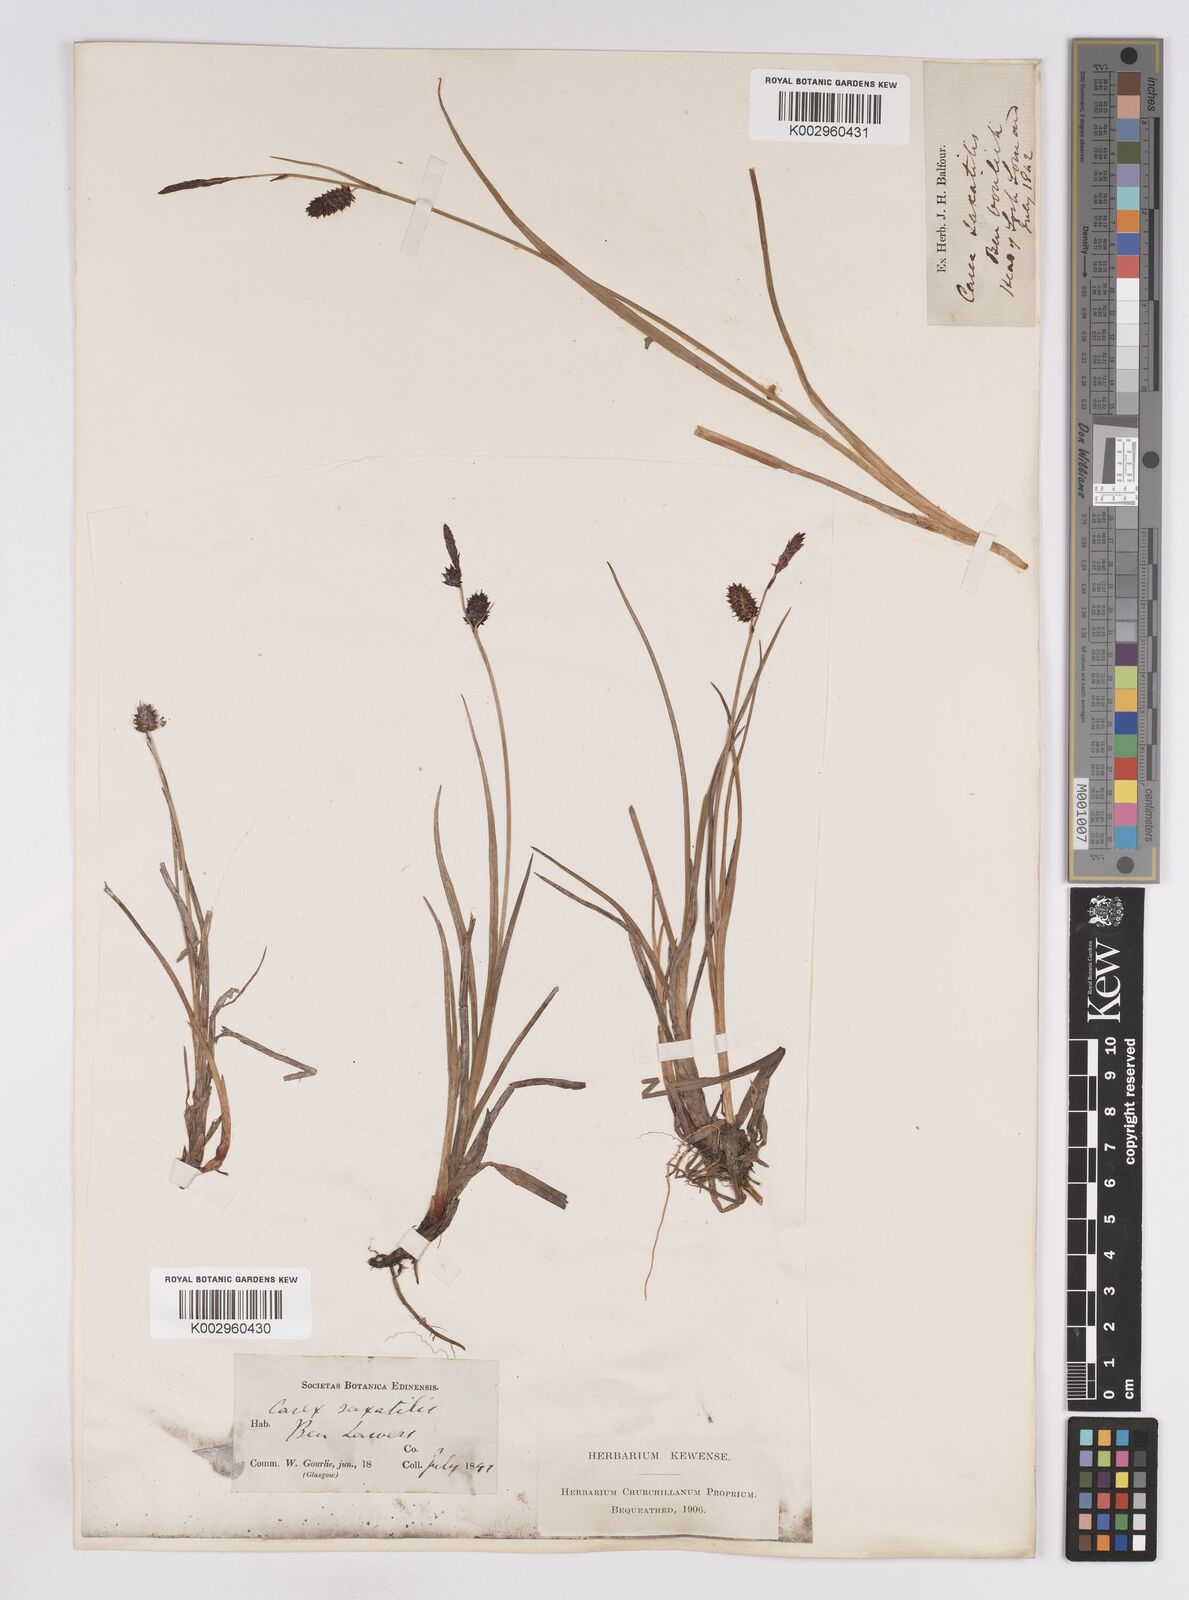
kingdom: Plantae
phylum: Tracheophyta
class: Liliopsida
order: Poales
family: Cyperaceae
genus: Carex
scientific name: Carex saxatilis
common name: Russet sedge
